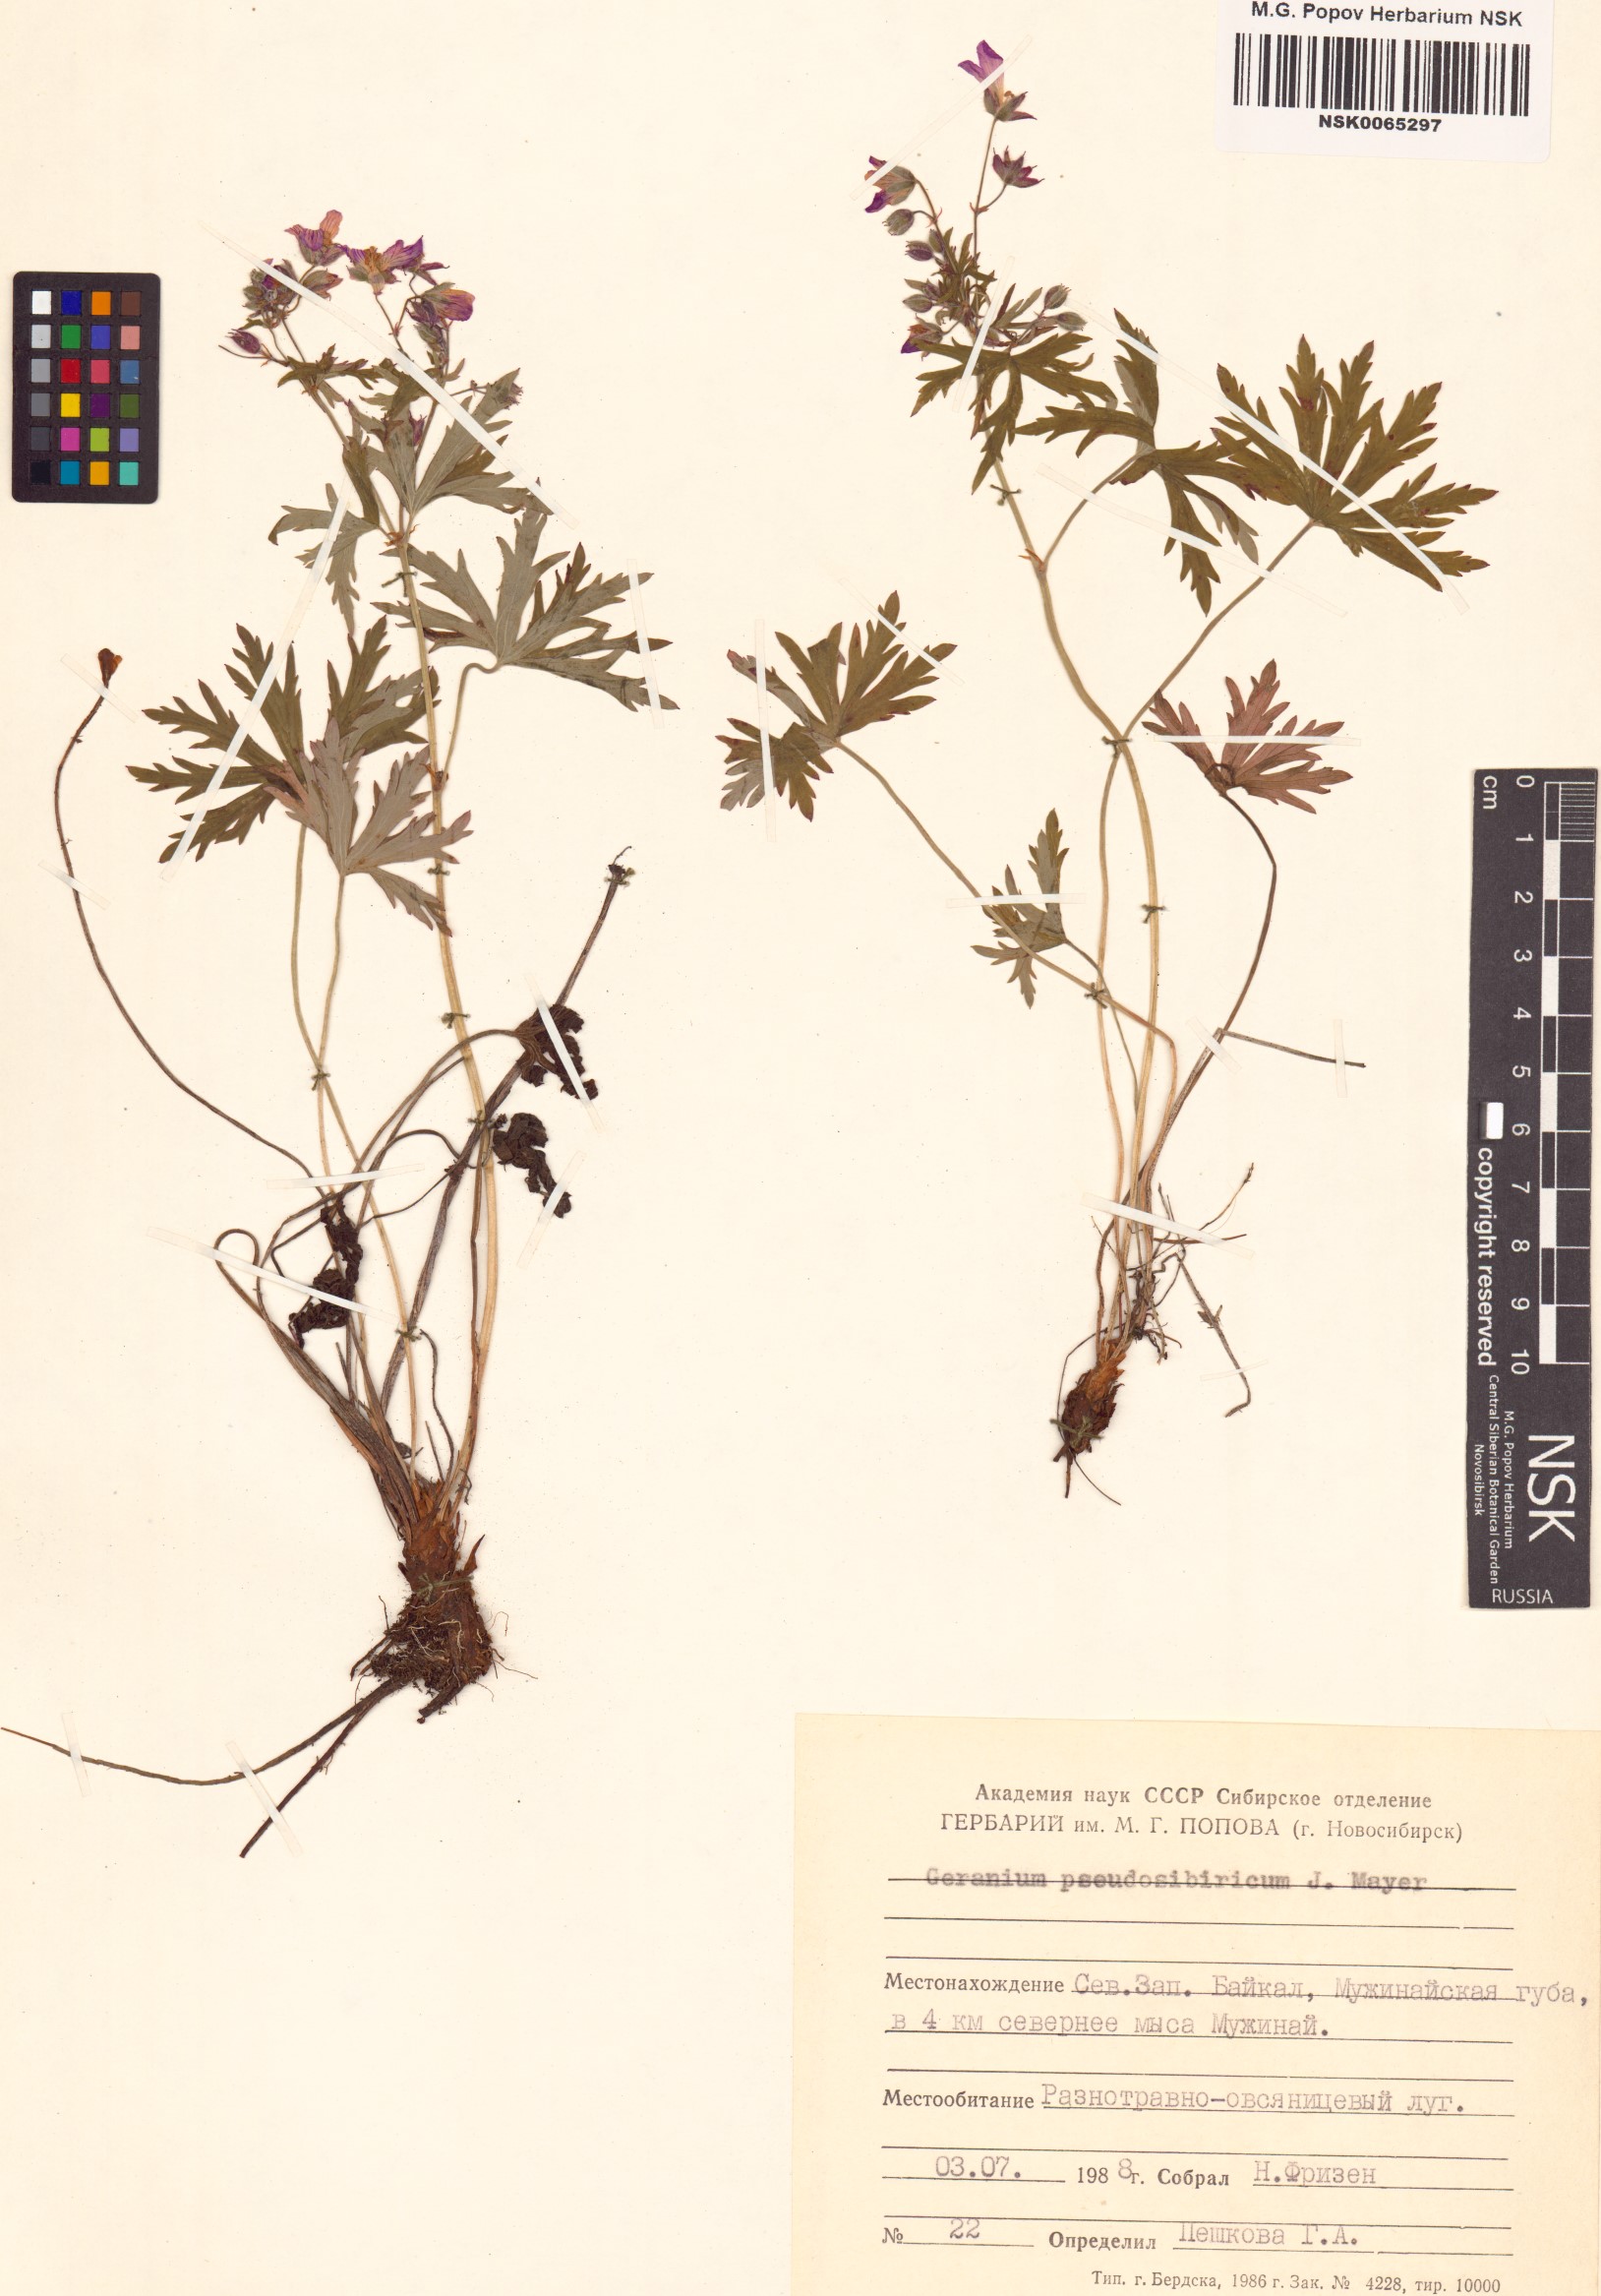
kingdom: Plantae
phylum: Tracheophyta
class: Magnoliopsida
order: Geraniales
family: Geraniaceae
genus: Geranium
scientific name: Geranium pseudosibiricum
